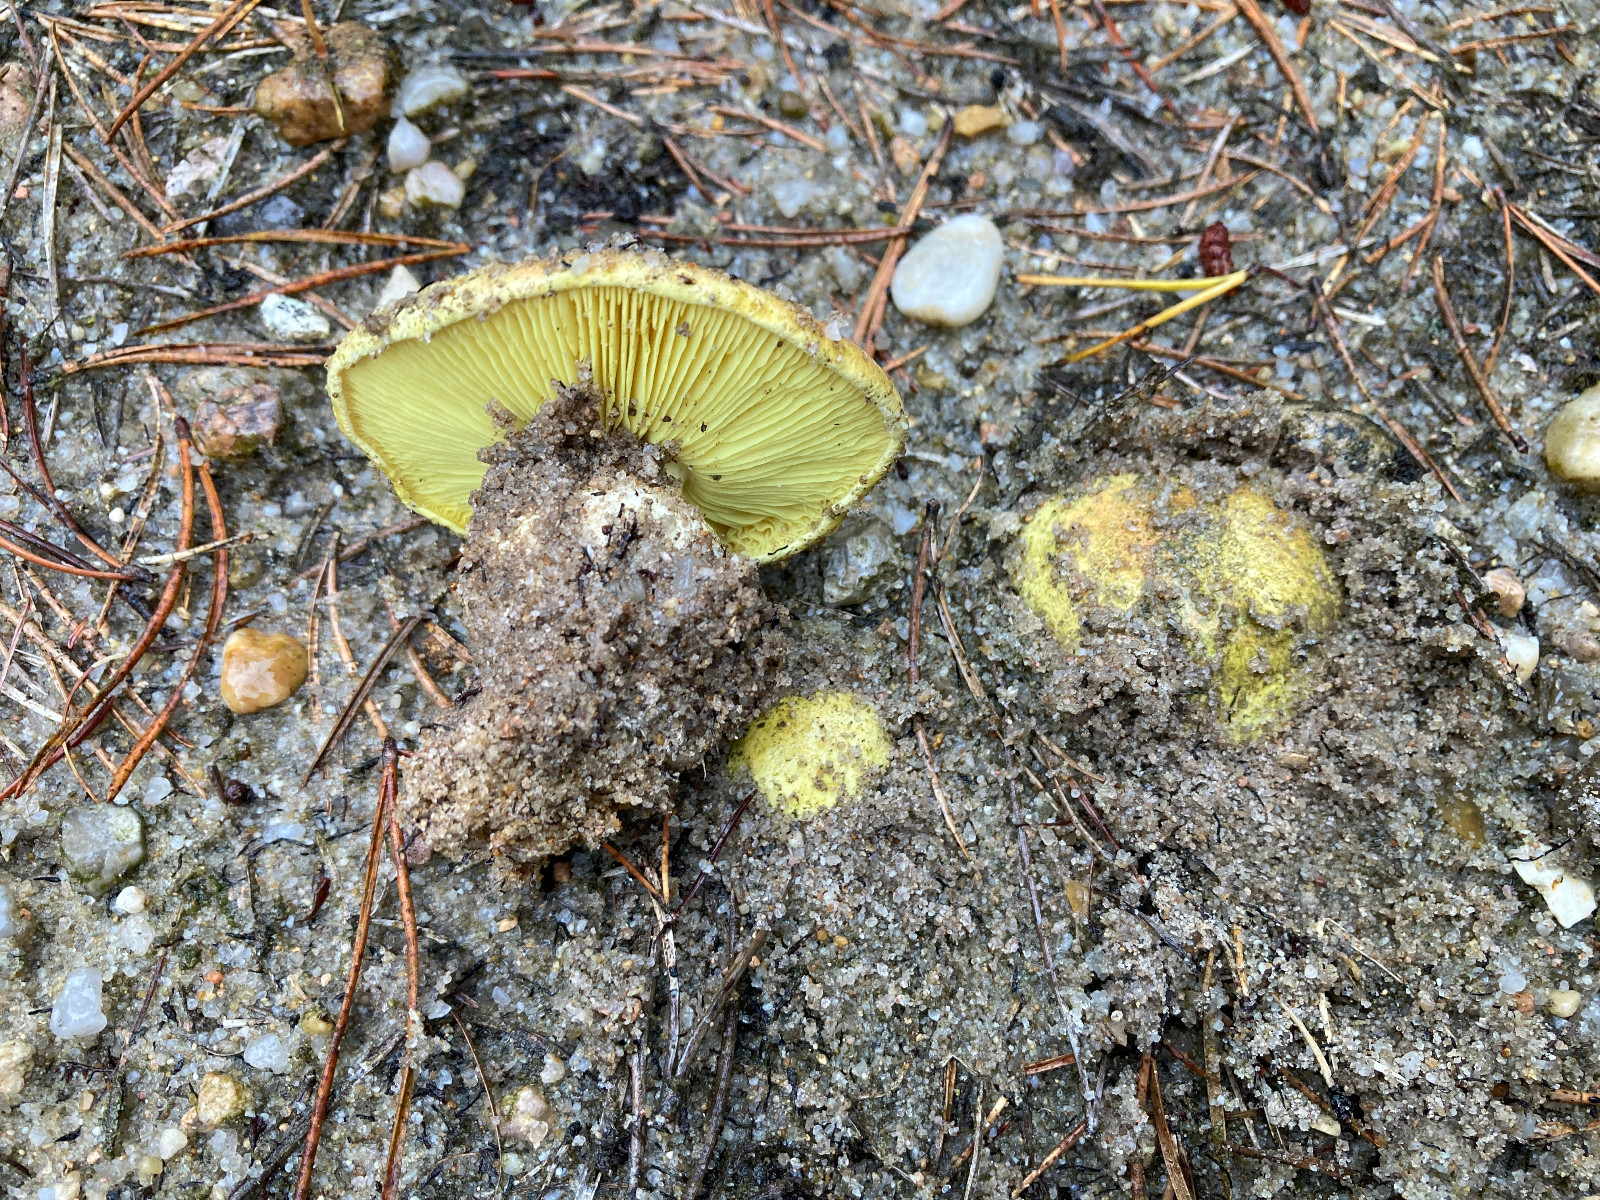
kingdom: Fungi
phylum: Basidiomycota
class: Agaricomycetes
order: Agaricales
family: Tricholomataceae
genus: Tricholoma
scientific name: Tricholoma equestre
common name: ægte ridderhat
